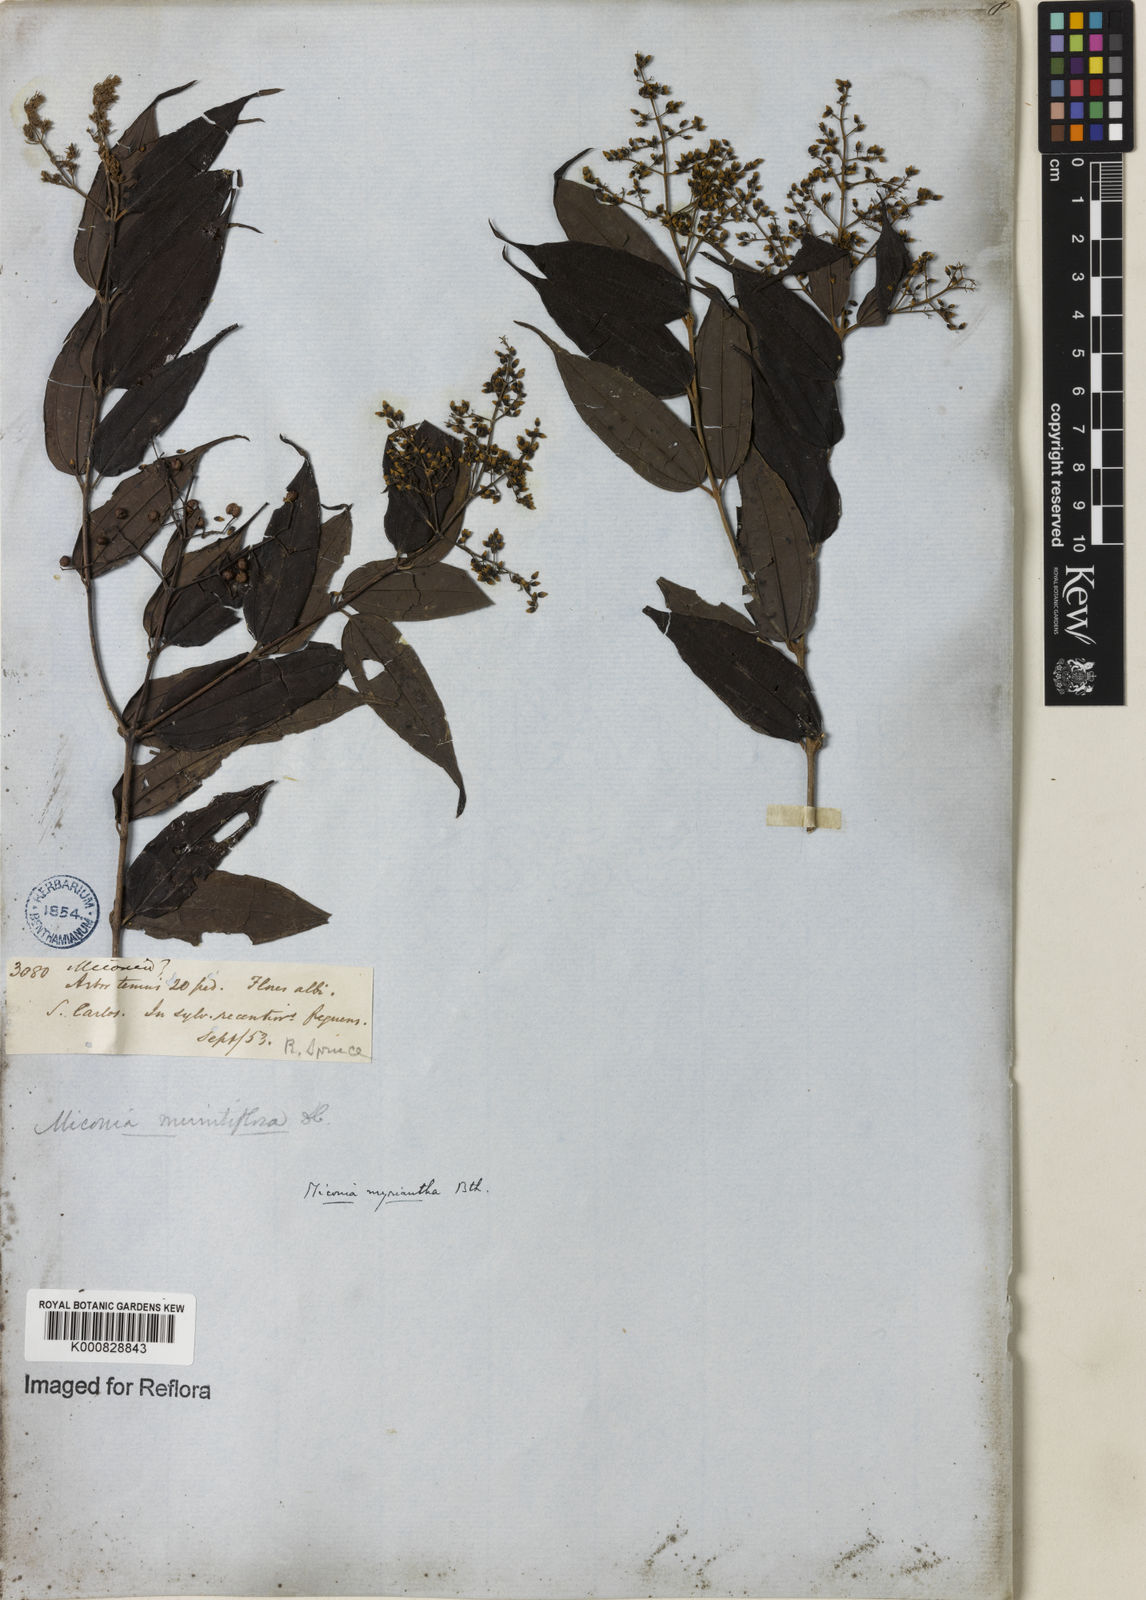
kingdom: Plantae
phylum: Tracheophyta
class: Magnoliopsida
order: Myrtales
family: Melastomataceae
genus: Miconia
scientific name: Miconia myriantha
